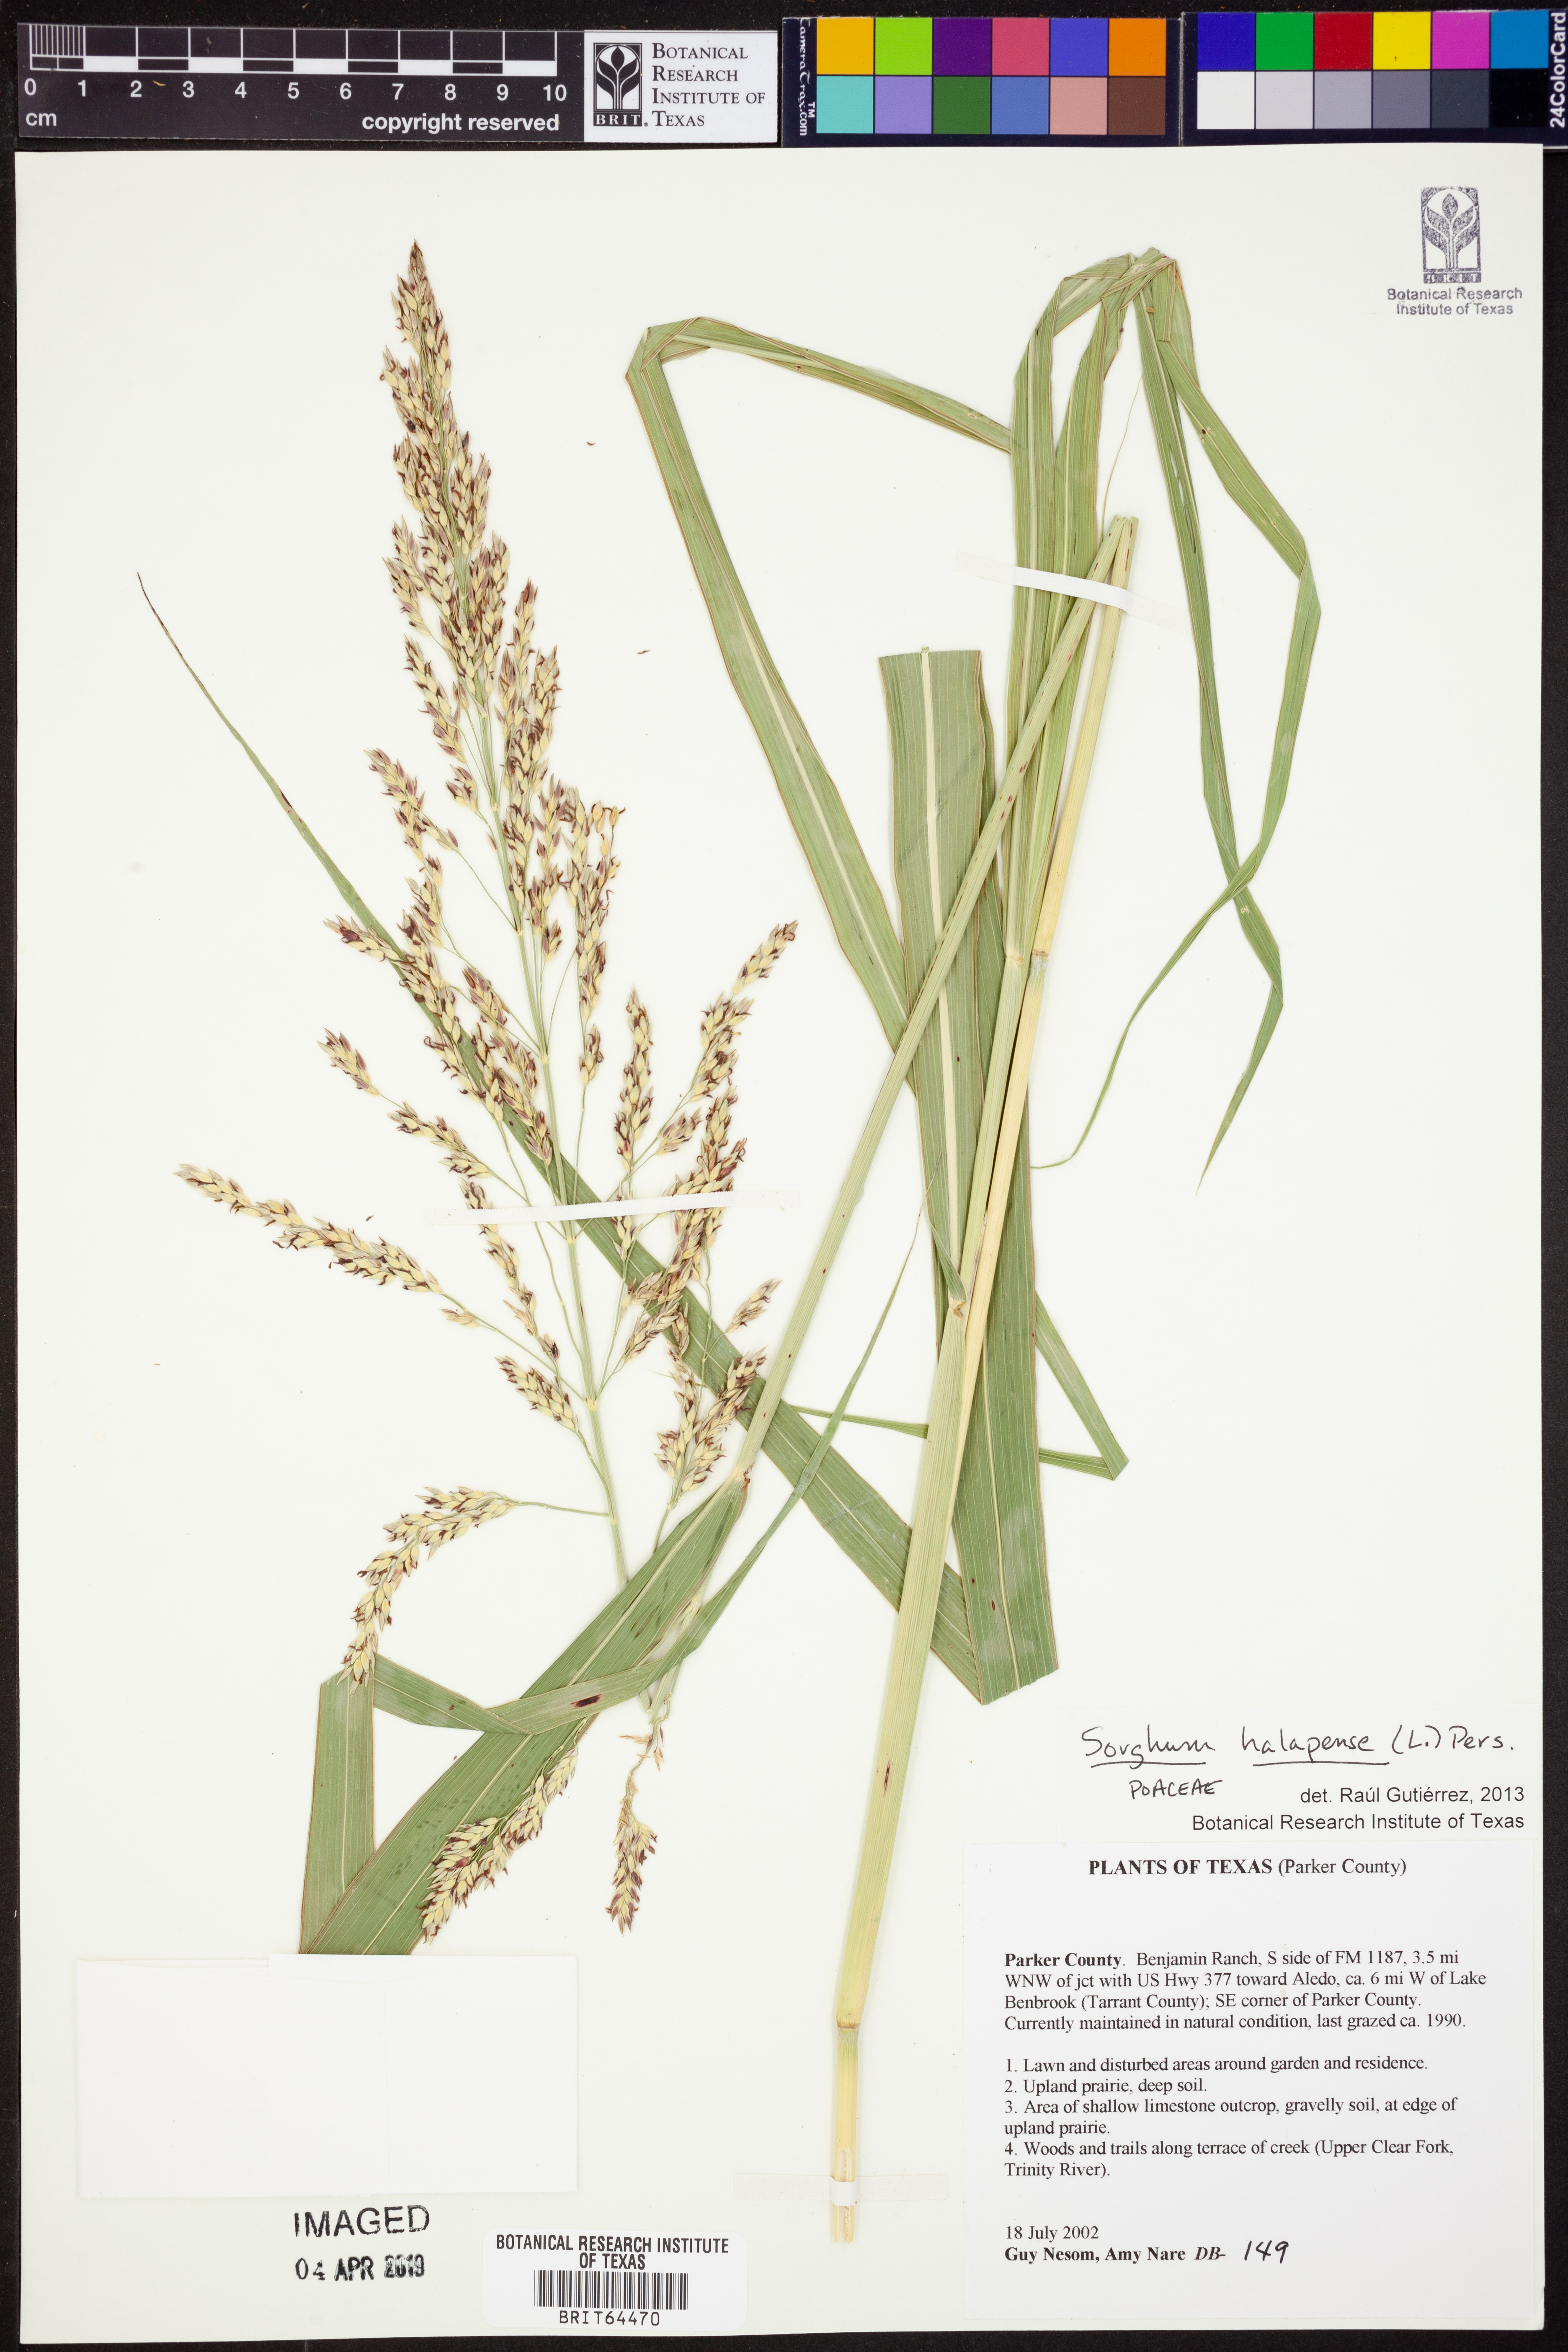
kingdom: Plantae
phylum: Tracheophyta
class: Liliopsida
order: Poales
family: Poaceae
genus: Sorghum
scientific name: Sorghum halepense
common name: Johnson-grass
